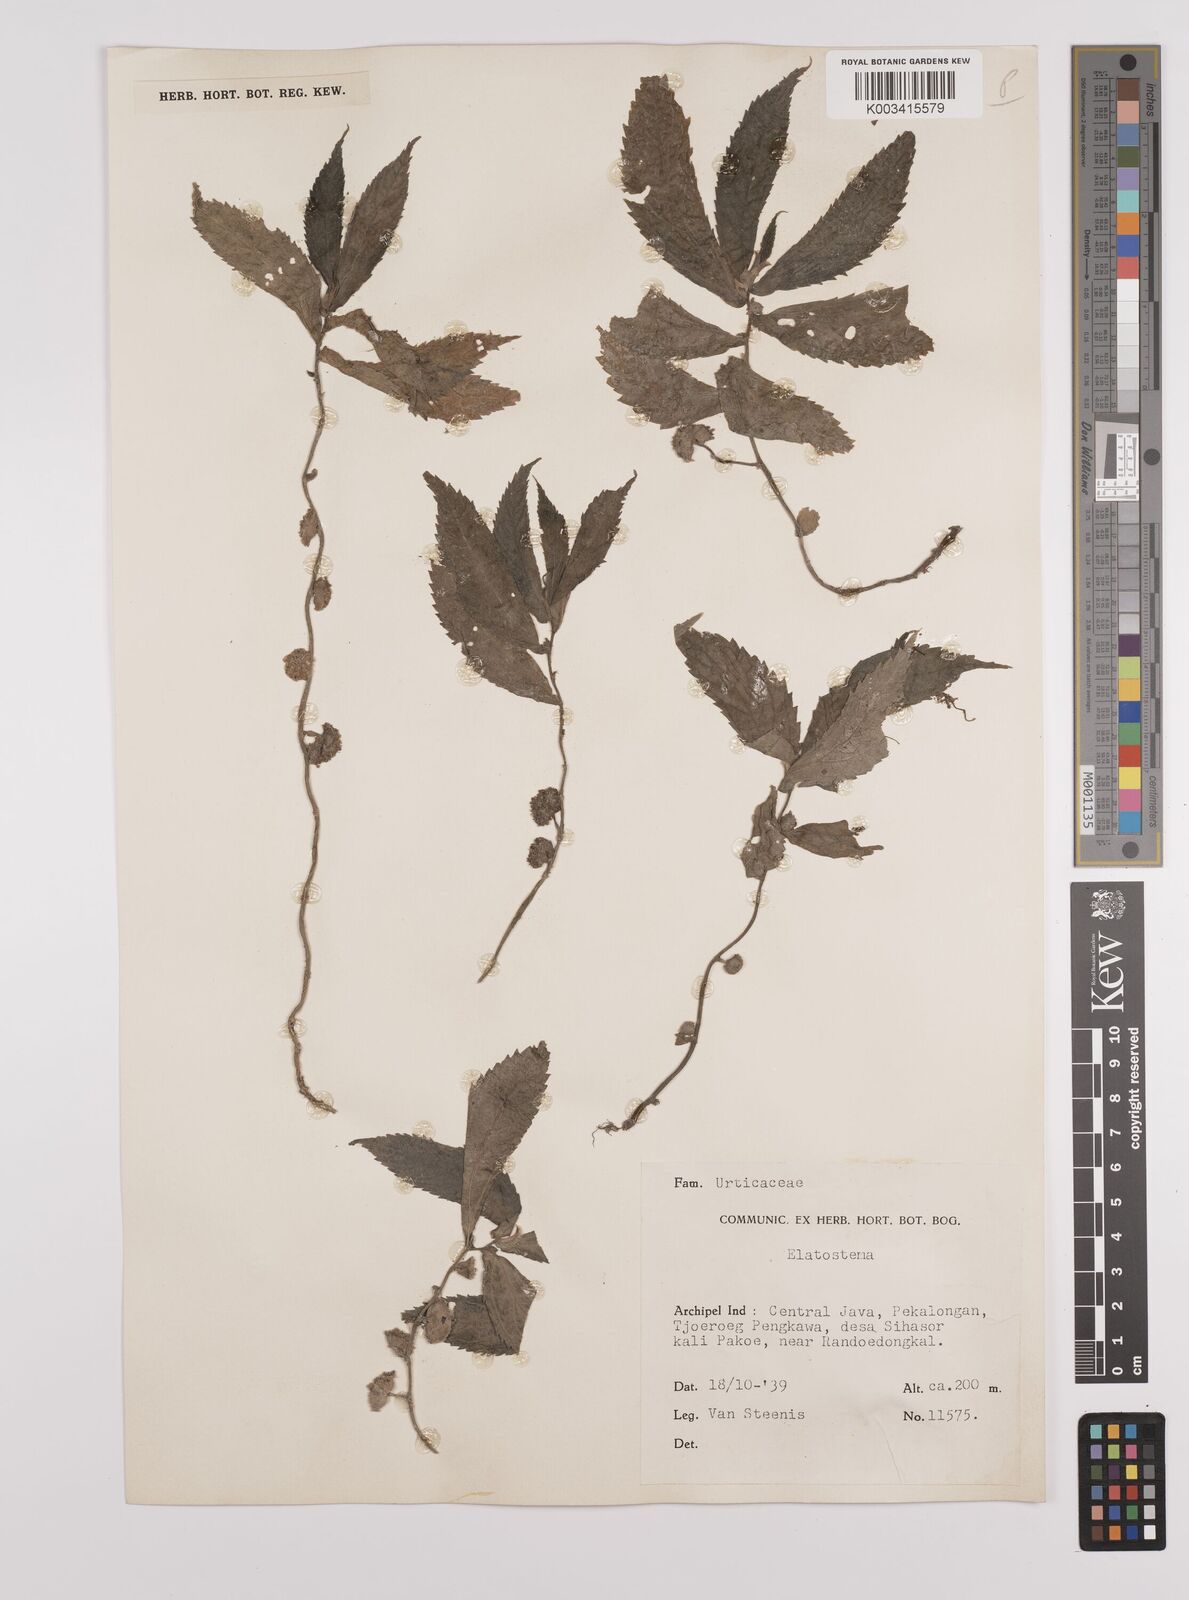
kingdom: Plantae
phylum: Tracheophyta
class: Magnoliopsida
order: Rosales
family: Urticaceae
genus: Elatostema
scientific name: Elatostema
